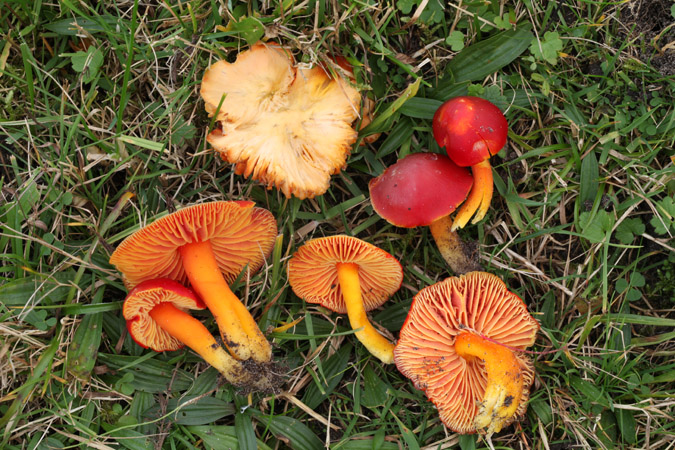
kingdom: Fungi
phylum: Basidiomycota
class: Agaricomycetes
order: Agaricales
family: Hygrophoraceae
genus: Hygrocybe
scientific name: Hygrocybe coccinea
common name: cinnober-vokshat
